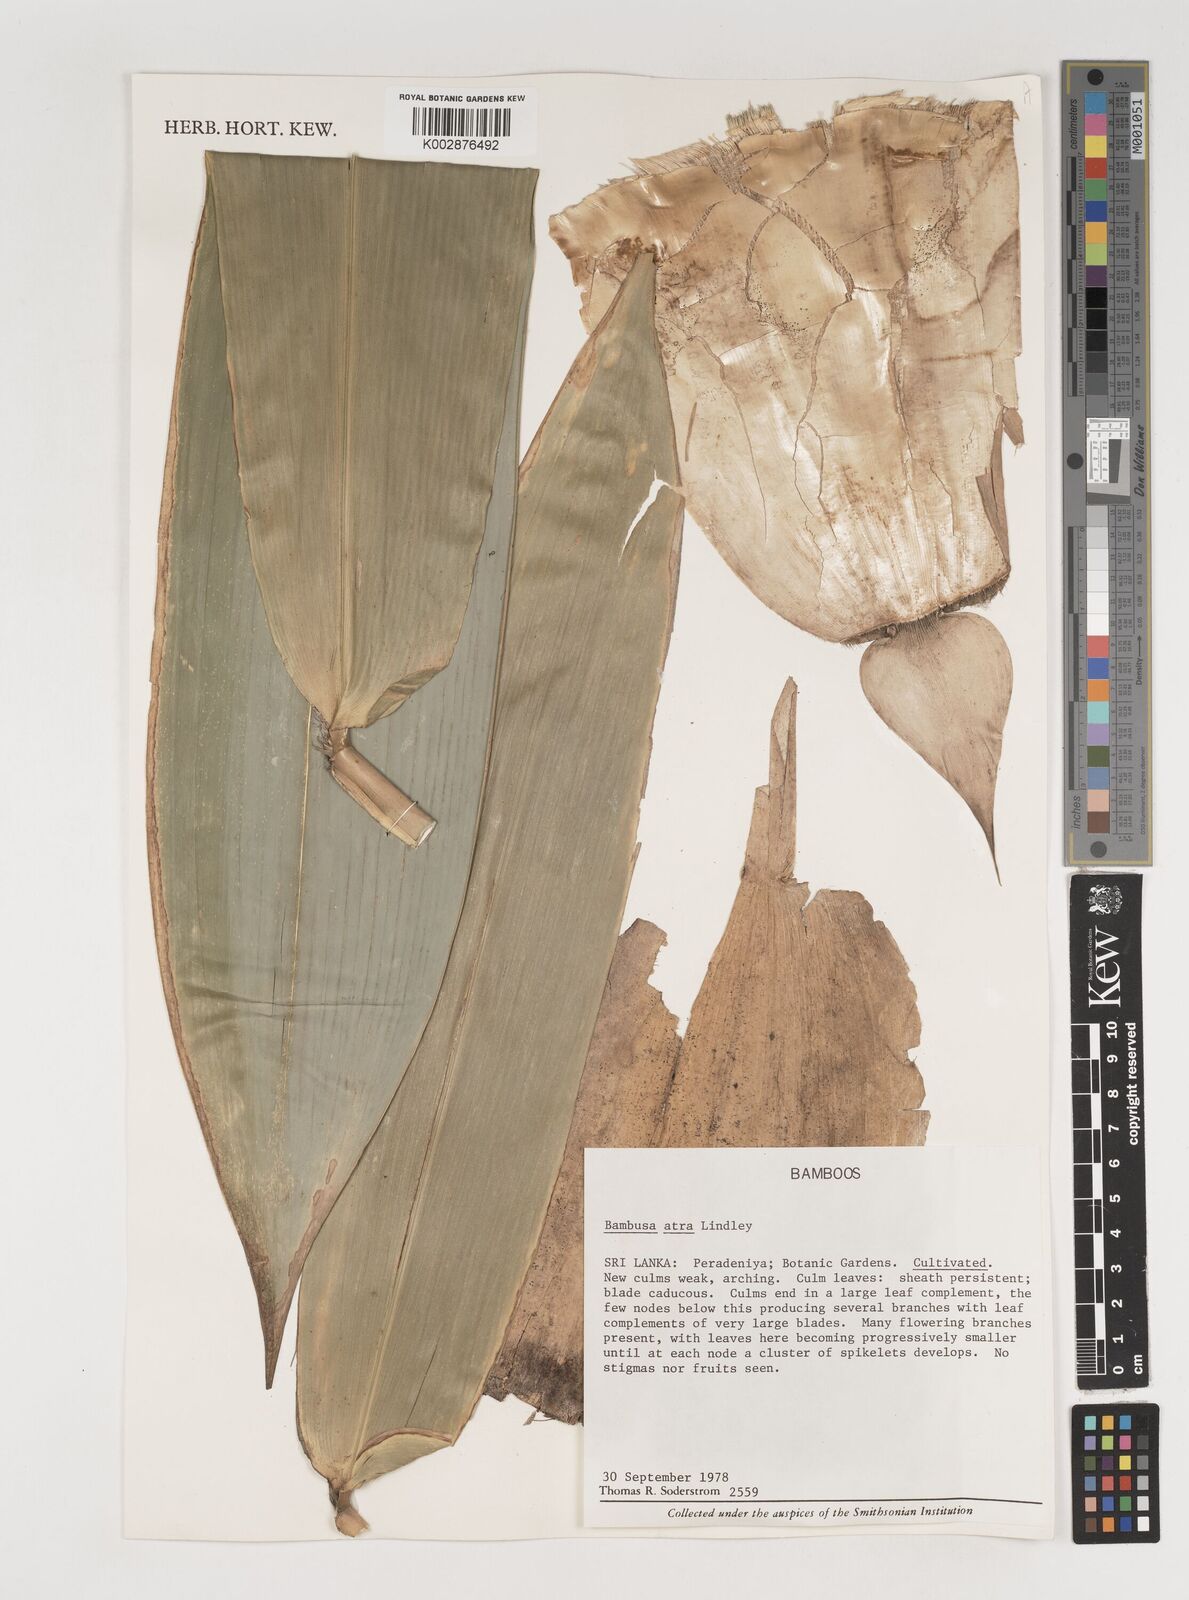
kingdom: Plantae
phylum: Tracheophyta
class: Liliopsida
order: Poales
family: Poaceae
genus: Bambusa
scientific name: Bambusa
